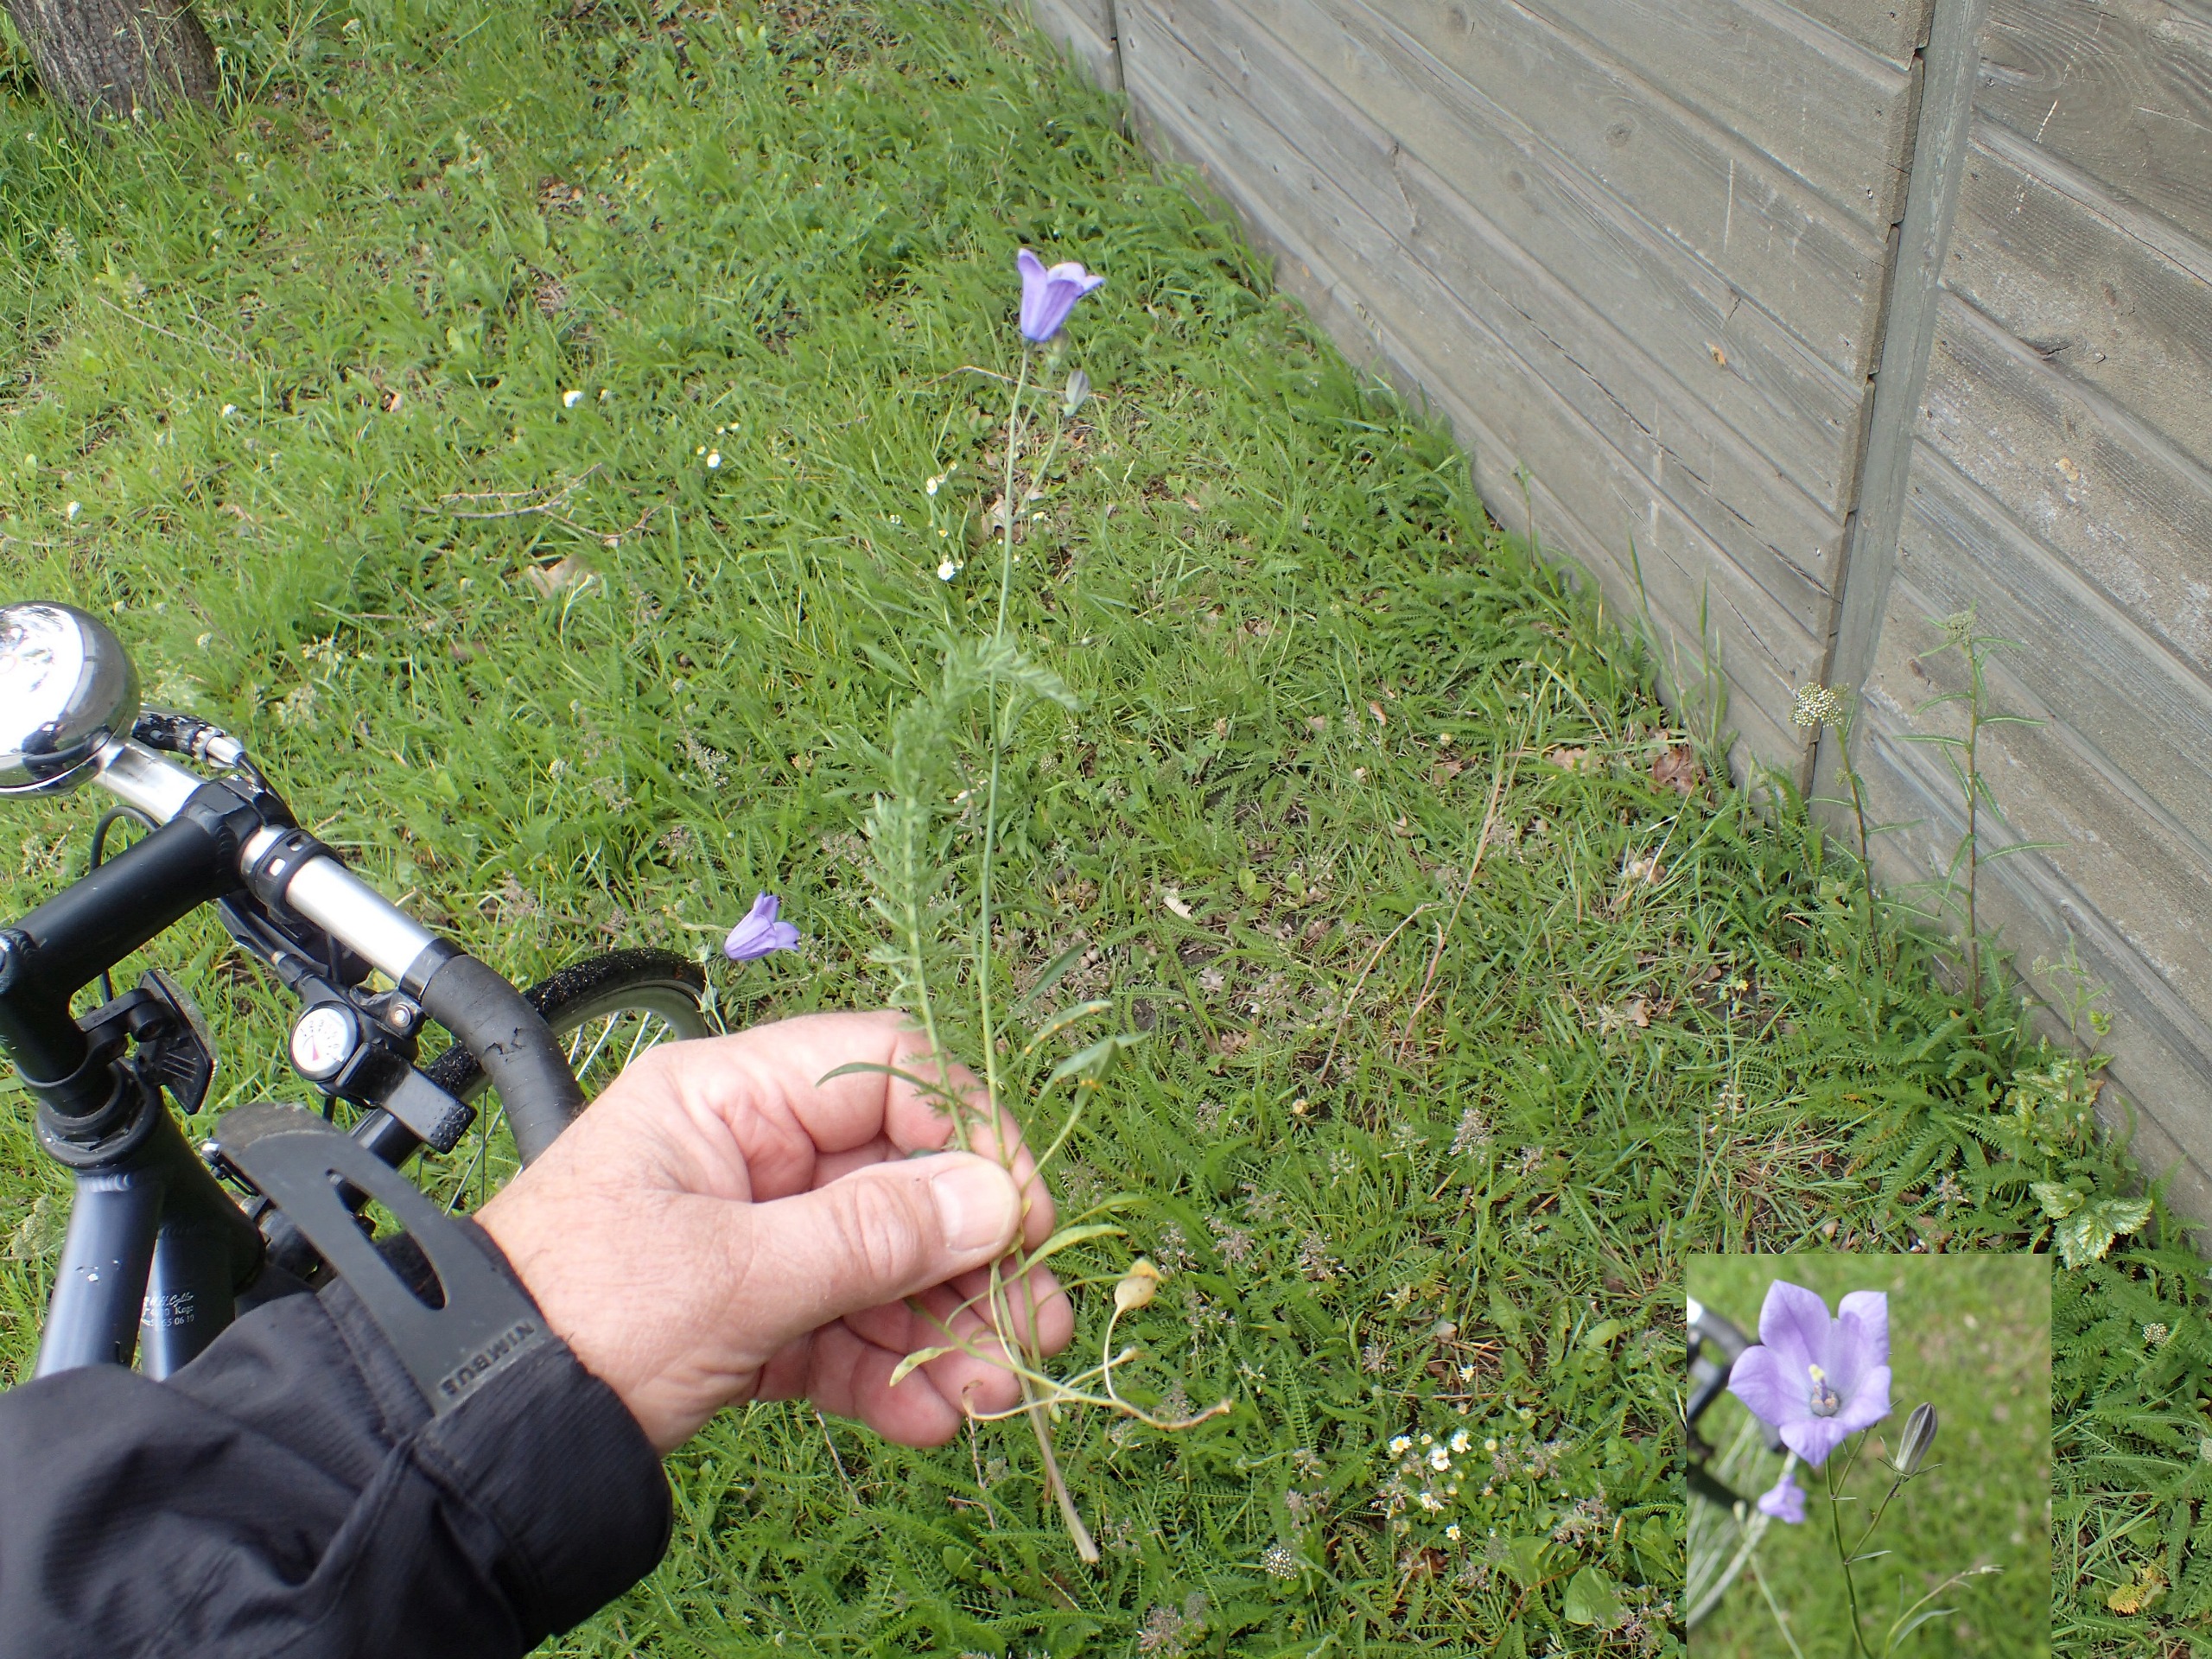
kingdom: Plantae
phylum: Tracheophyta
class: Magnoliopsida
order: Asterales
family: Campanulaceae
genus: Campanula
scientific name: Campanula rotundifolia
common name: Liden klokke
